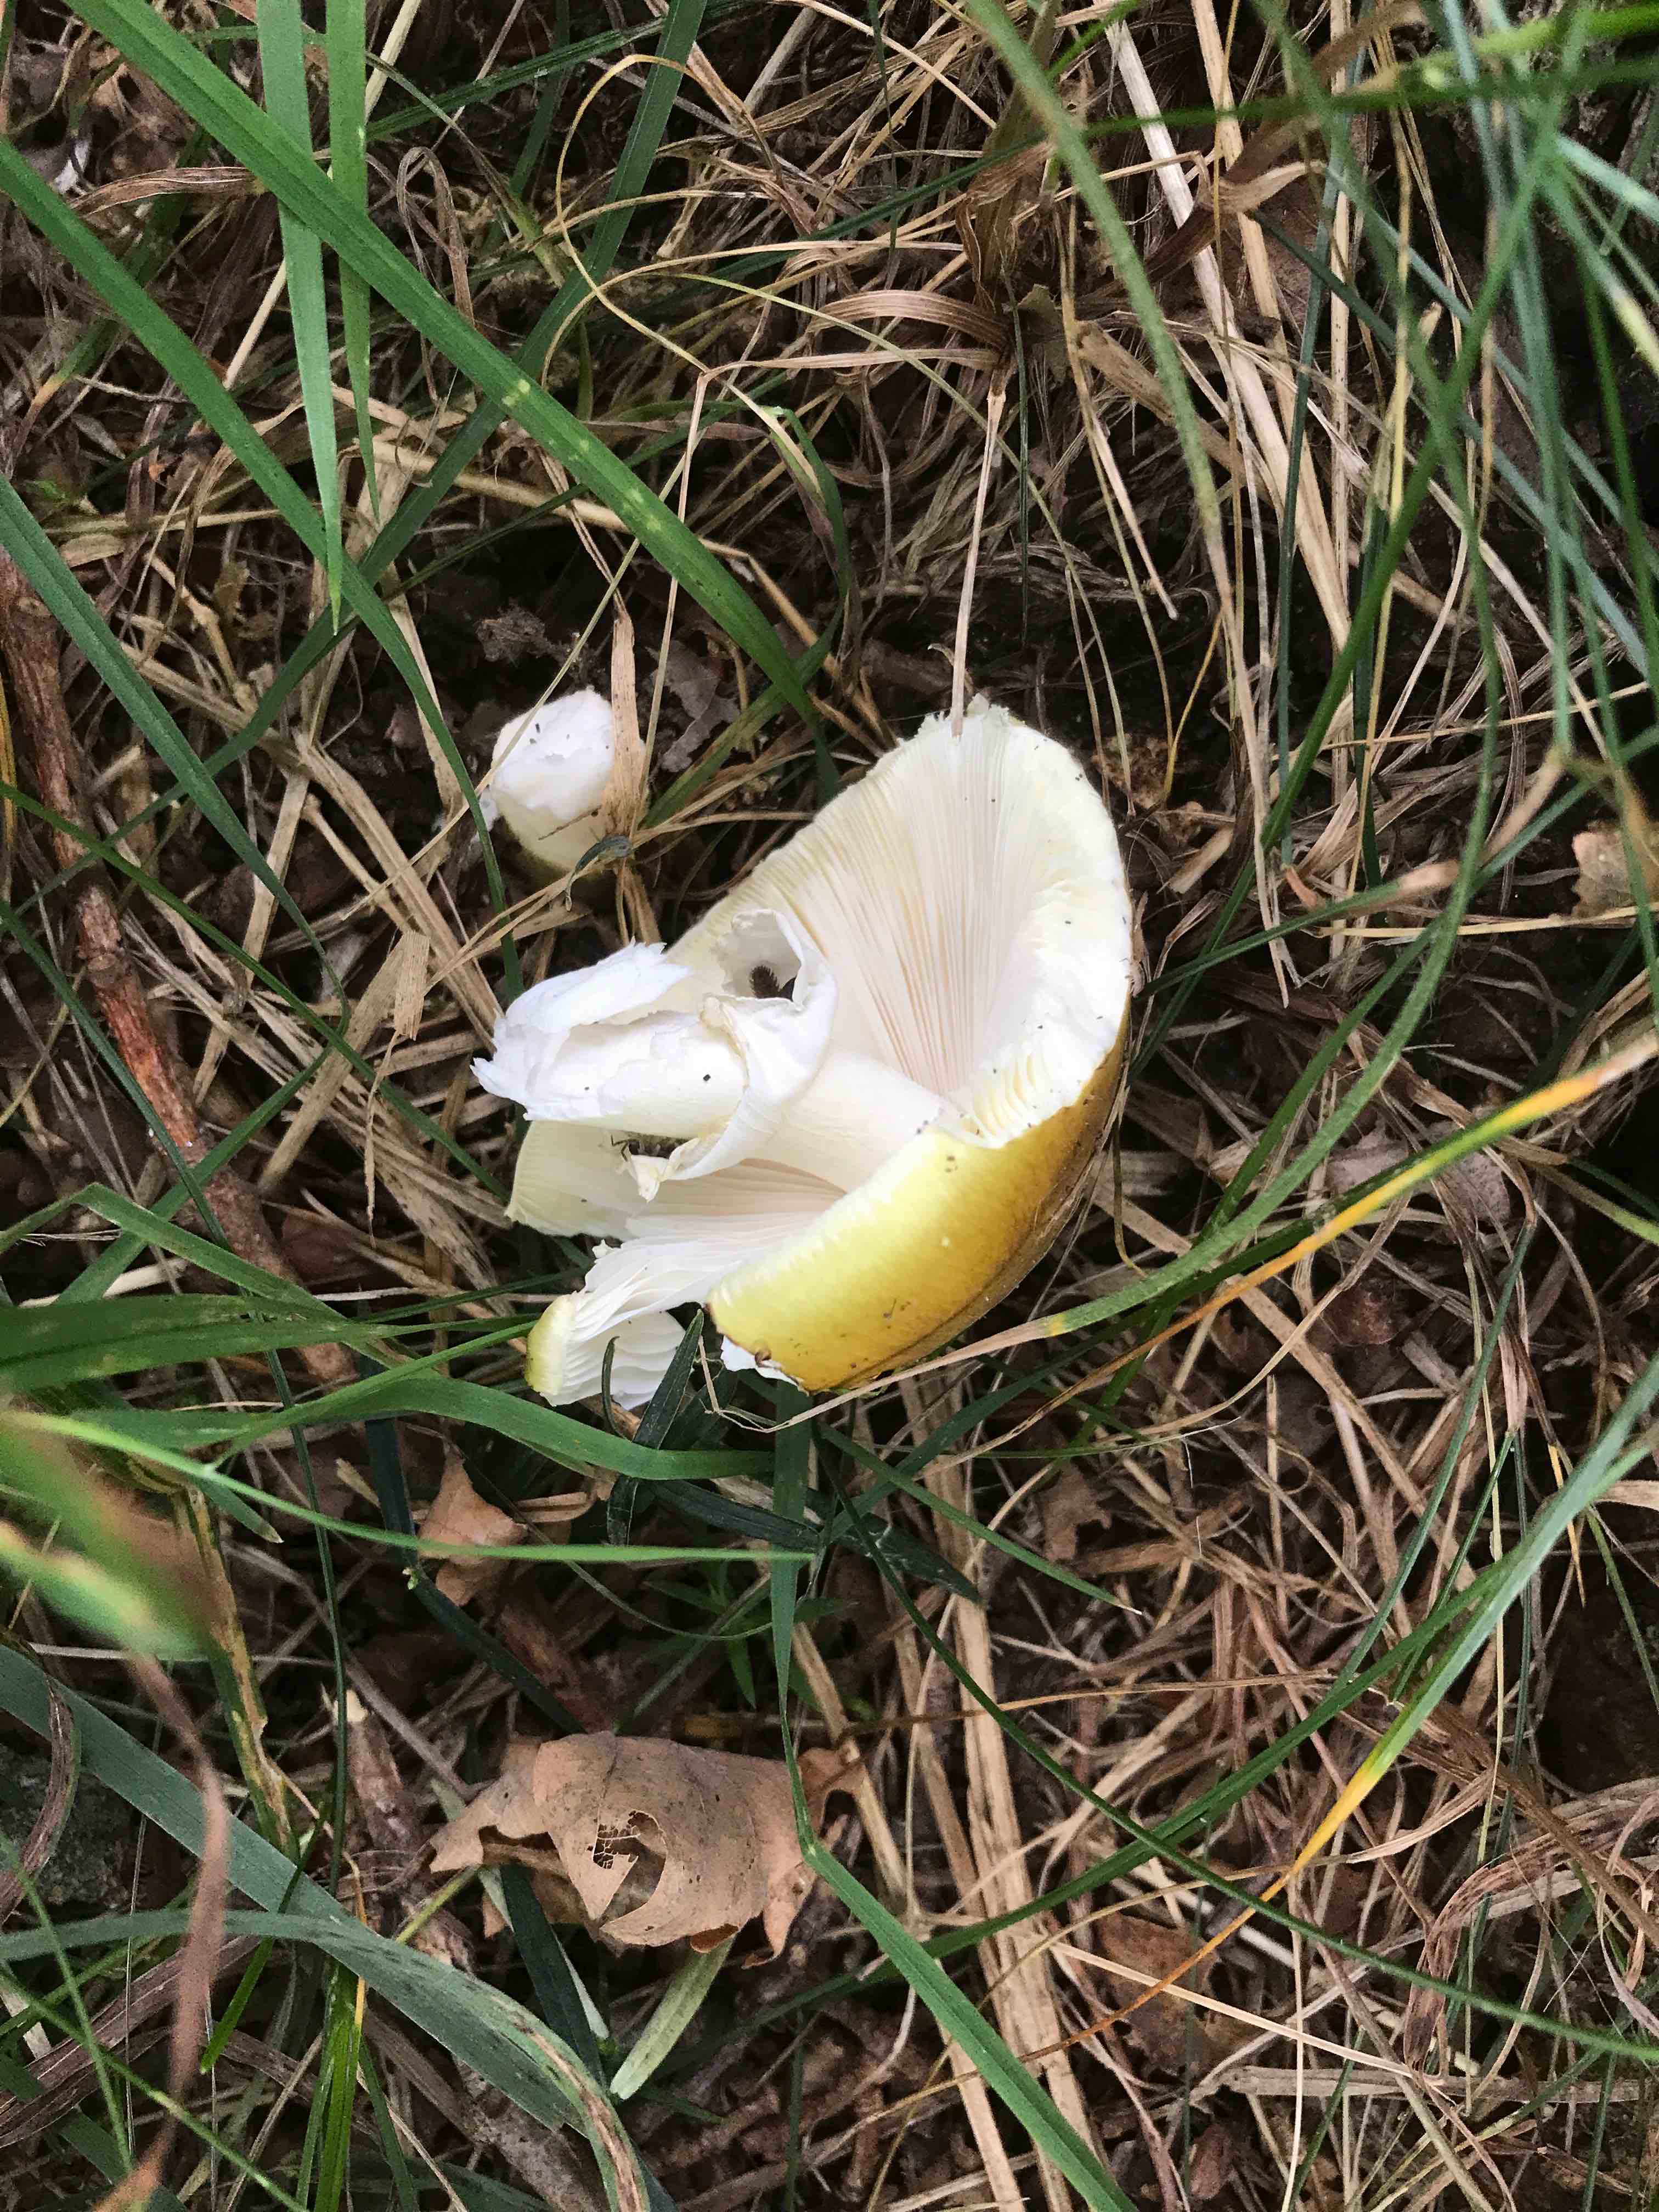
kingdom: Fungi
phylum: Basidiomycota
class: Agaricomycetes
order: Agaricales
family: Amanitaceae
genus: Amanita
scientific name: Amanita phalloides
